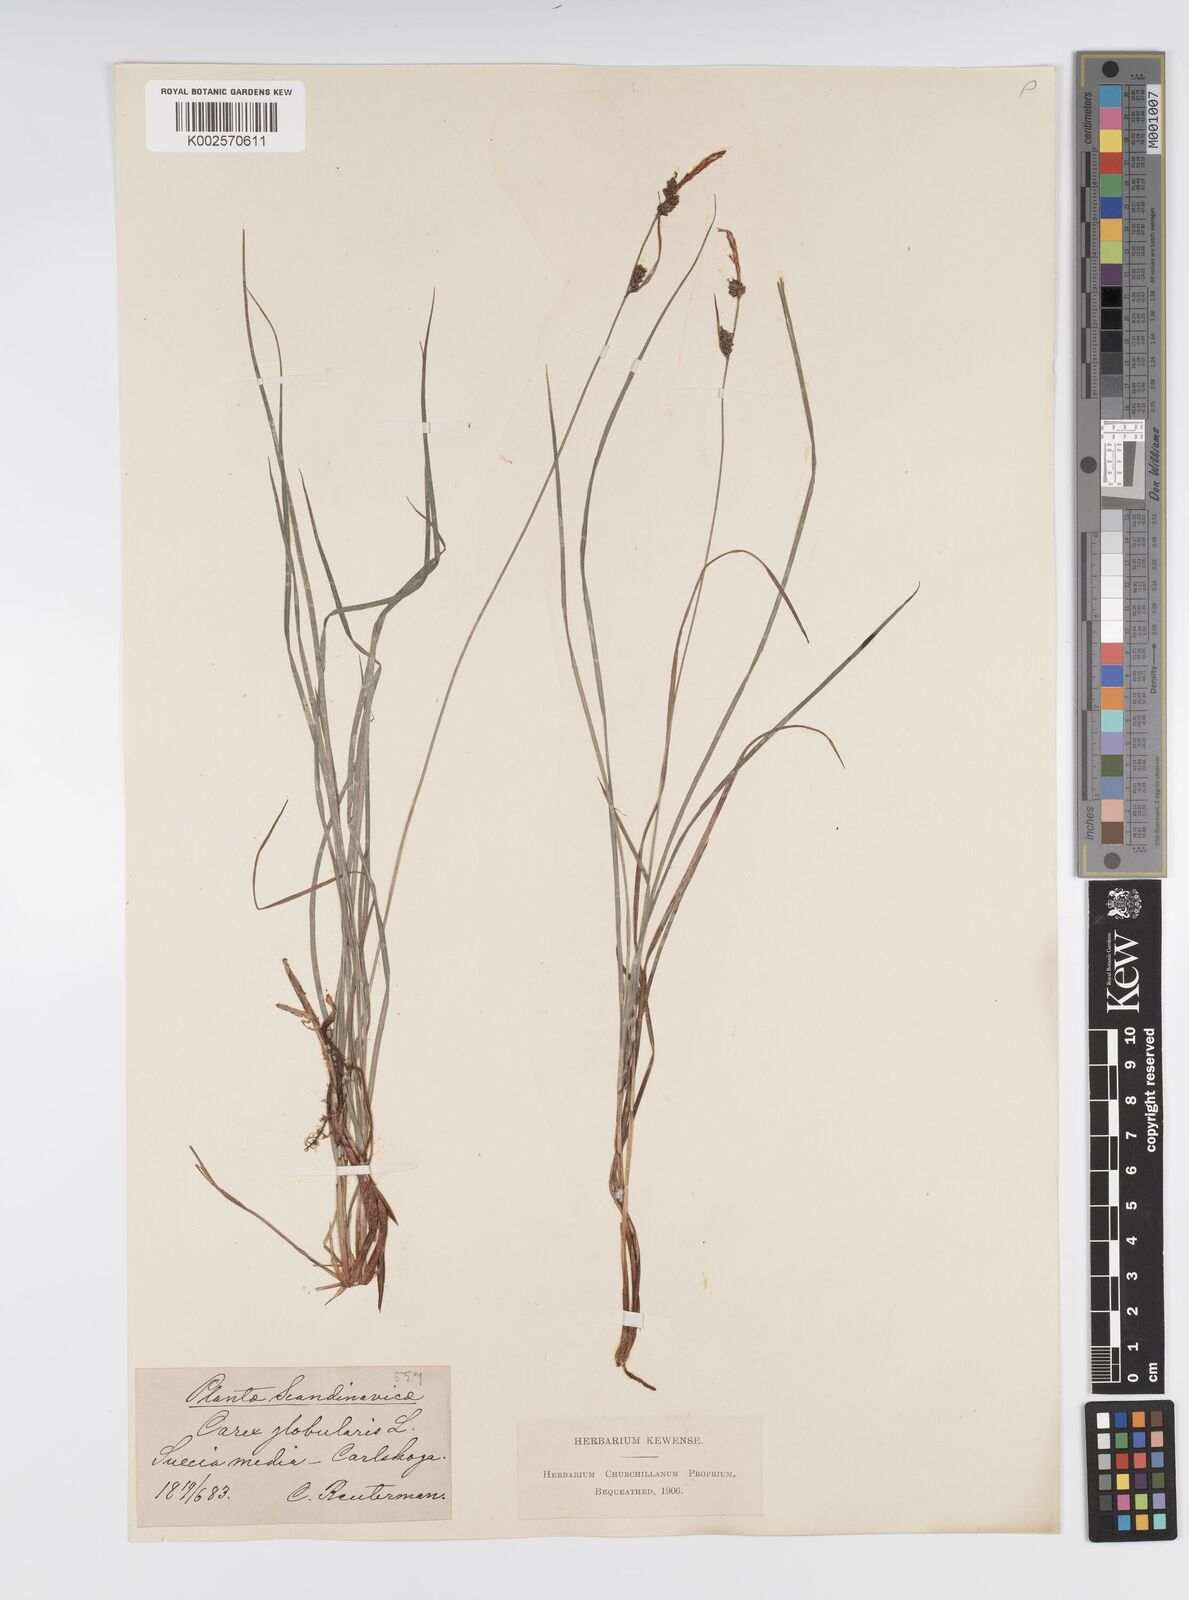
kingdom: Plantae
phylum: Tracheophyta
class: Liliopsida
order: Poales
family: Cyperaceae
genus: Carex
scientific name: Carex globularis
